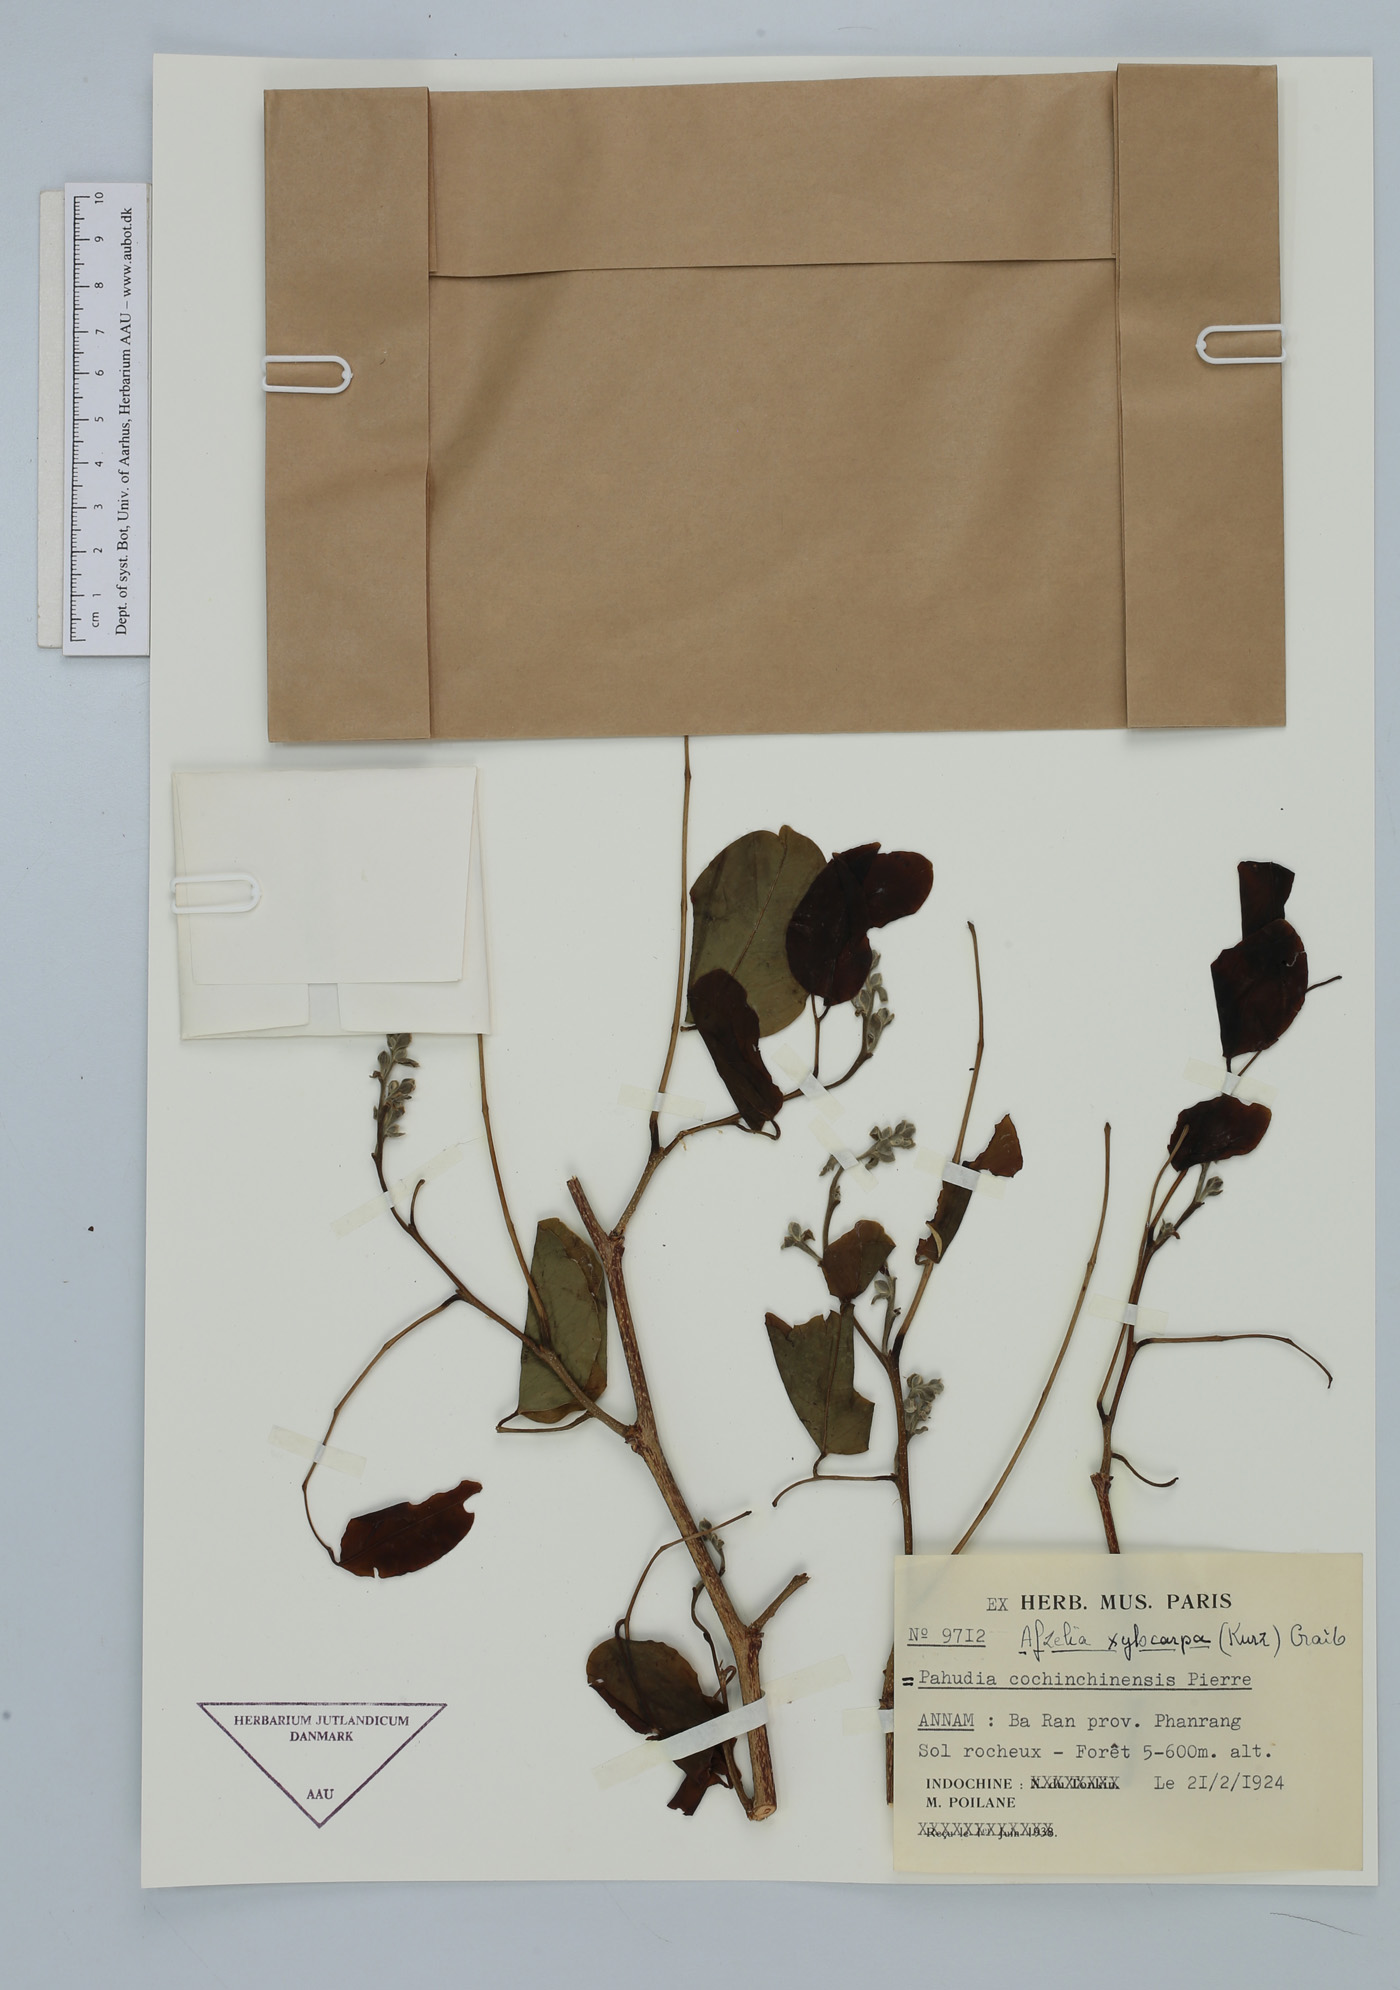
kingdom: Plantae
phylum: Tracheophyta
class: Magnoliopsida
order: Fabales
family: Fabaceae
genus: Afzelia
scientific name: Afzelia xylocarpa
